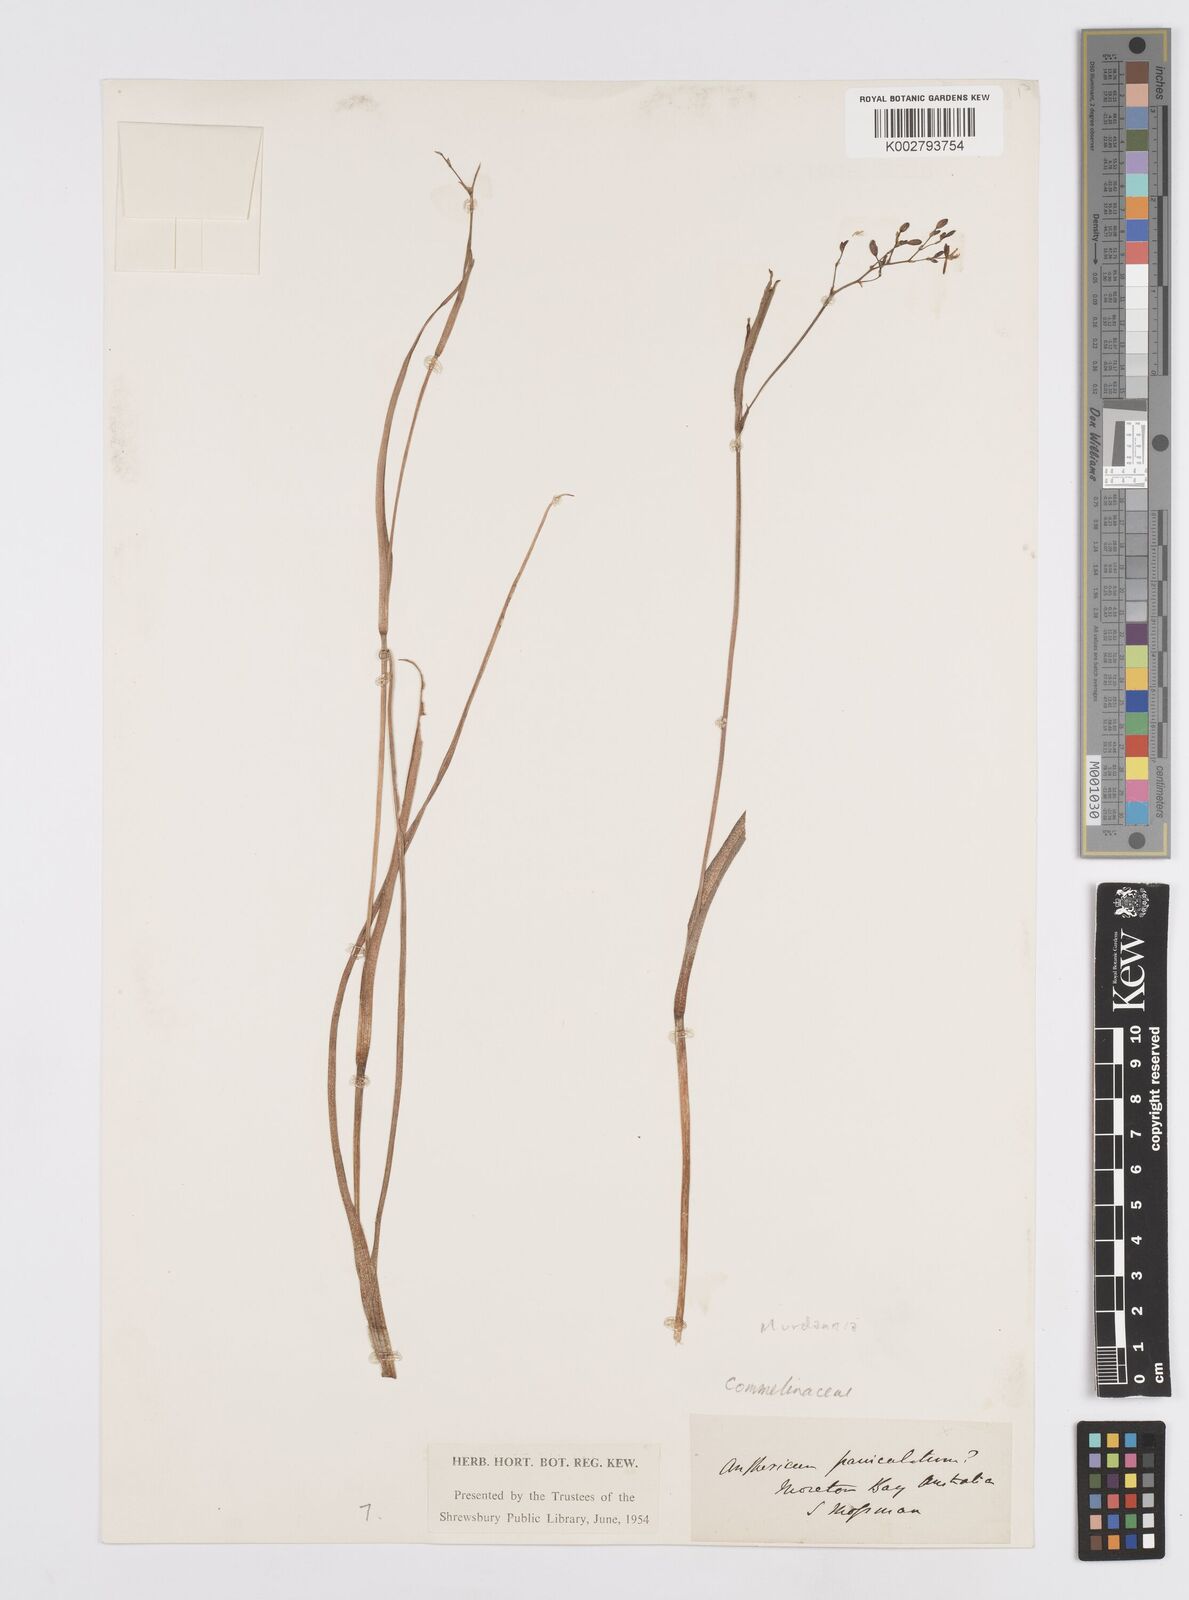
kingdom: Plantae
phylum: Tracheophyta
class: Liliopsida
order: Commelinales
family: Commelinaceae
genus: Murdannia
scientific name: Murdannia
